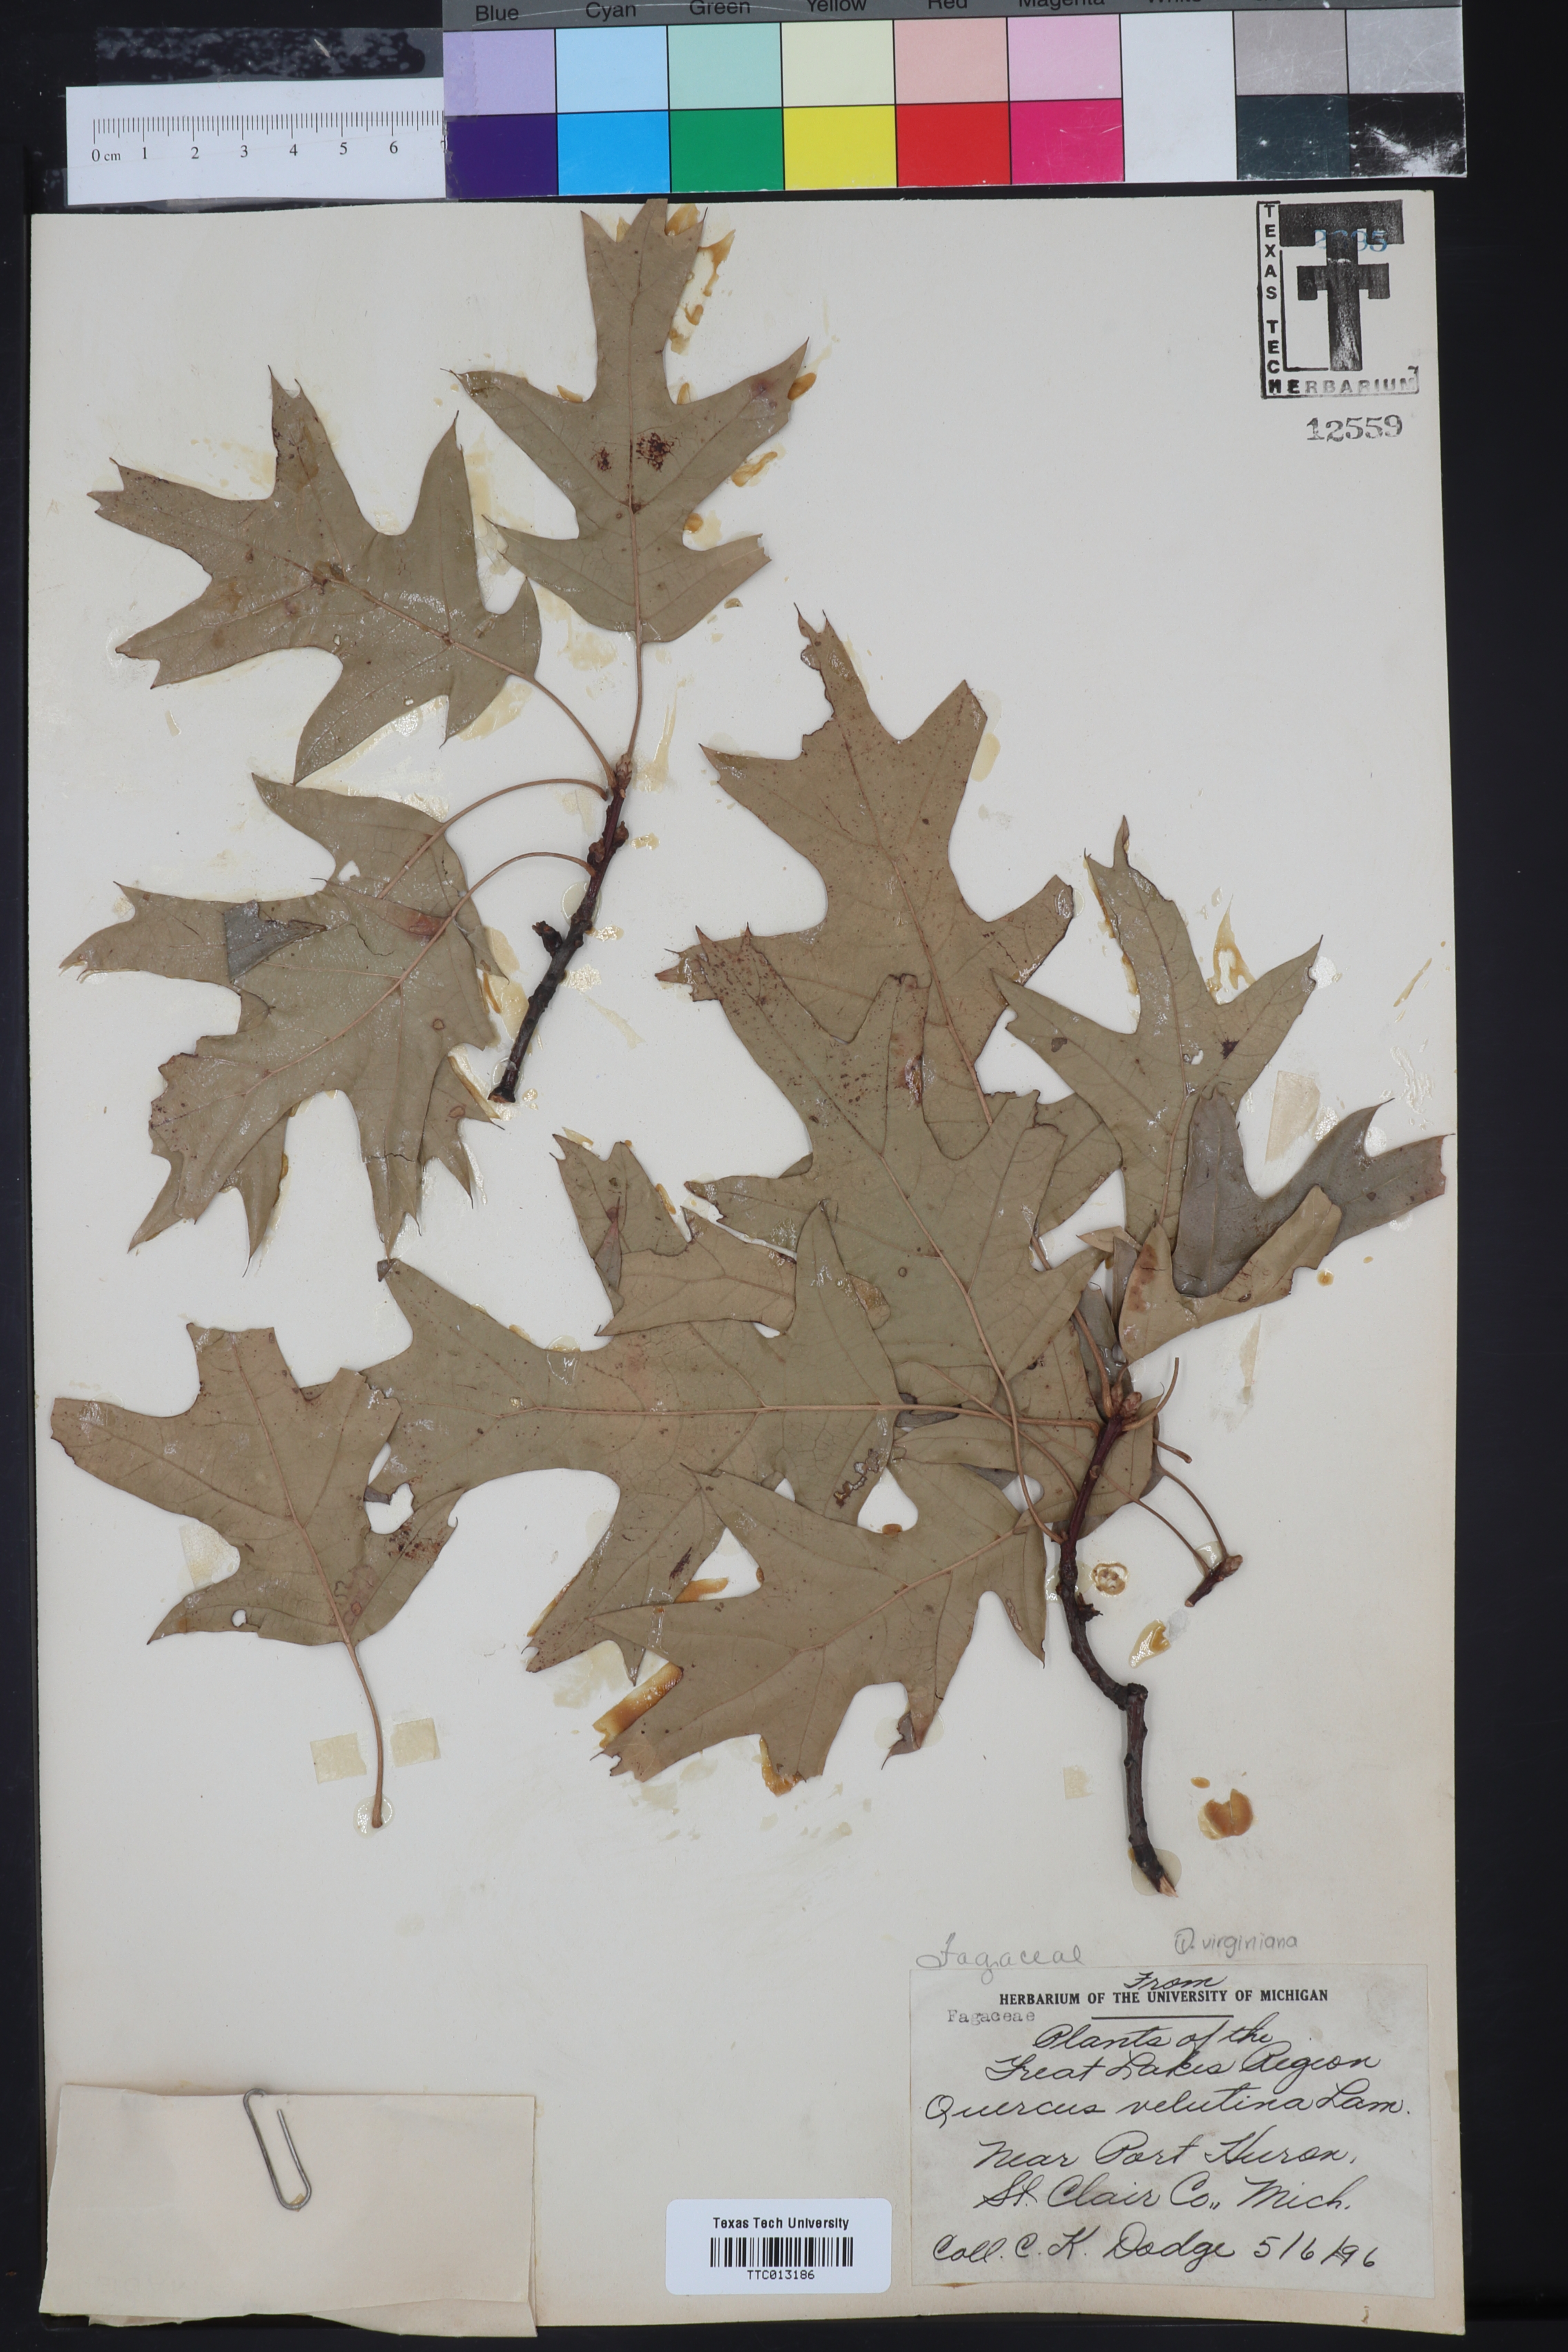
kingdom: Plantae
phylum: Tracheophyta
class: Magnoliopsida
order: Fagales
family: Fagaceae
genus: Quercus
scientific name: Quercus velutina
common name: Black oak
